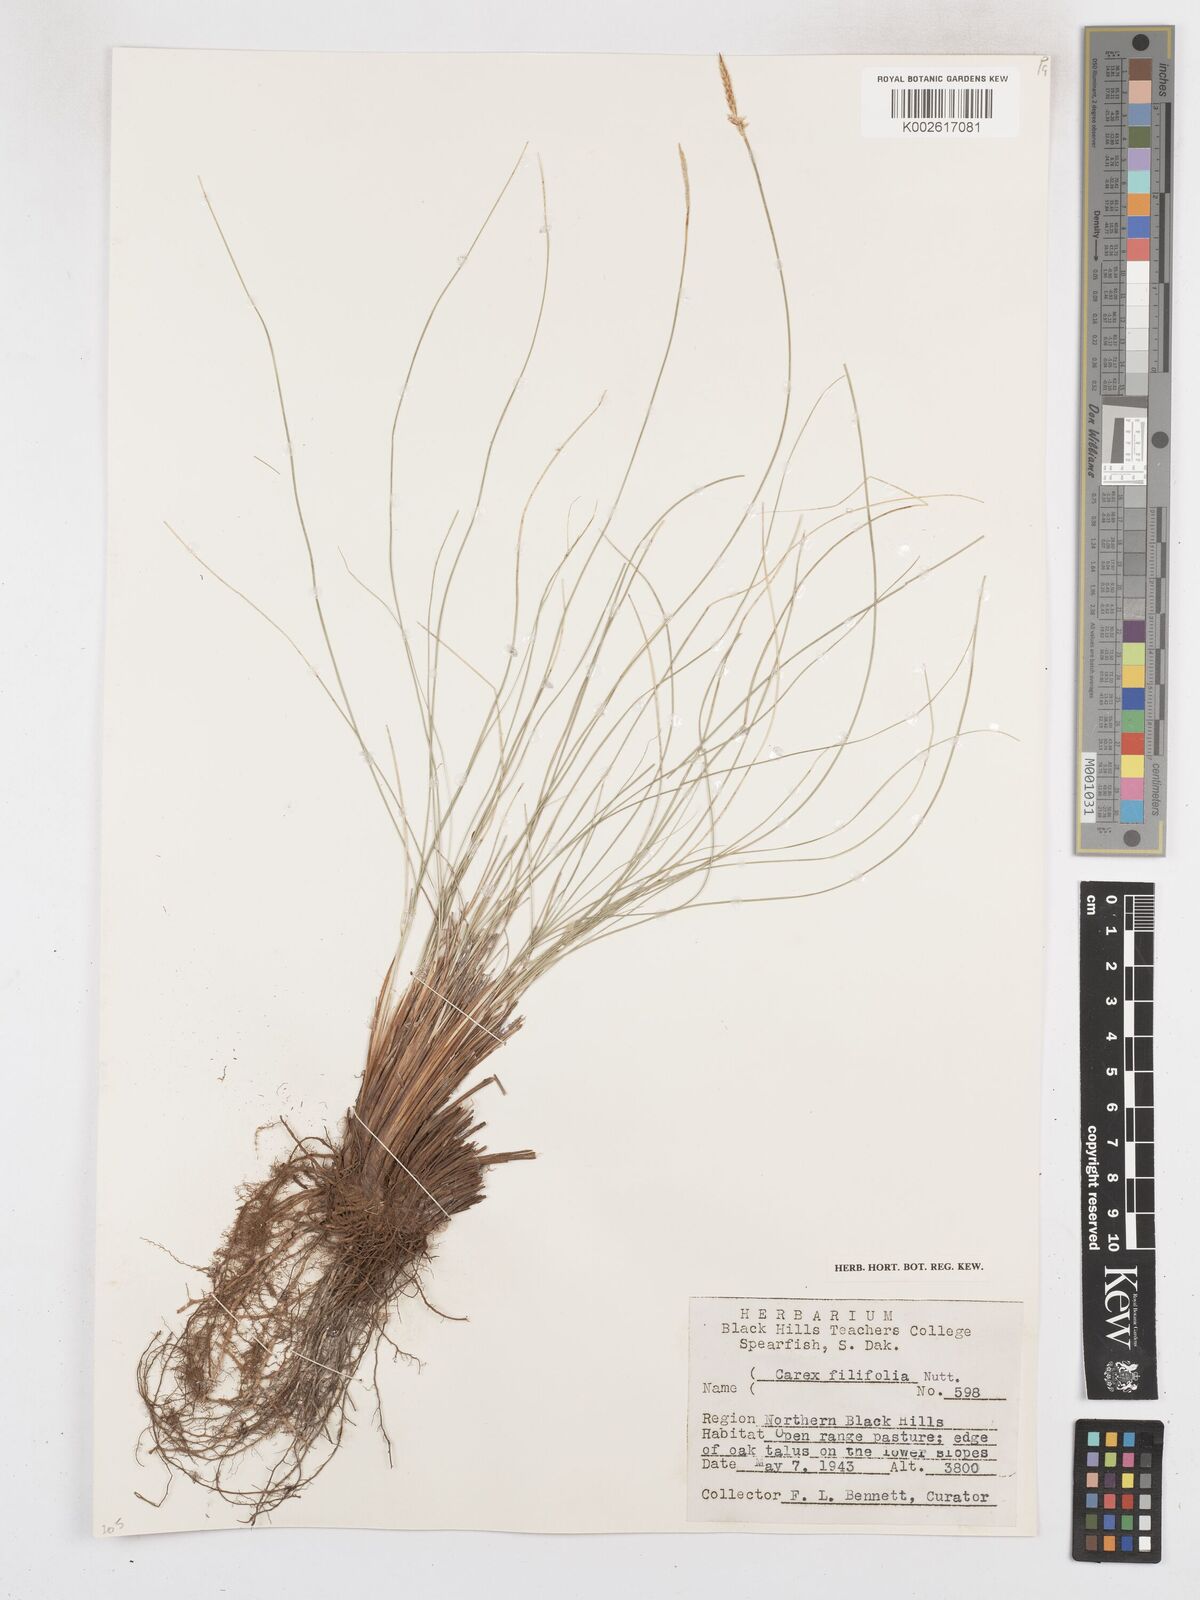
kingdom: Plantae
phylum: Tracheophyta
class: Liliopsida
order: Poales
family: Cyperaceae
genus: Carex
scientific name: Carex filifolia
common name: Threadleaf sedge
